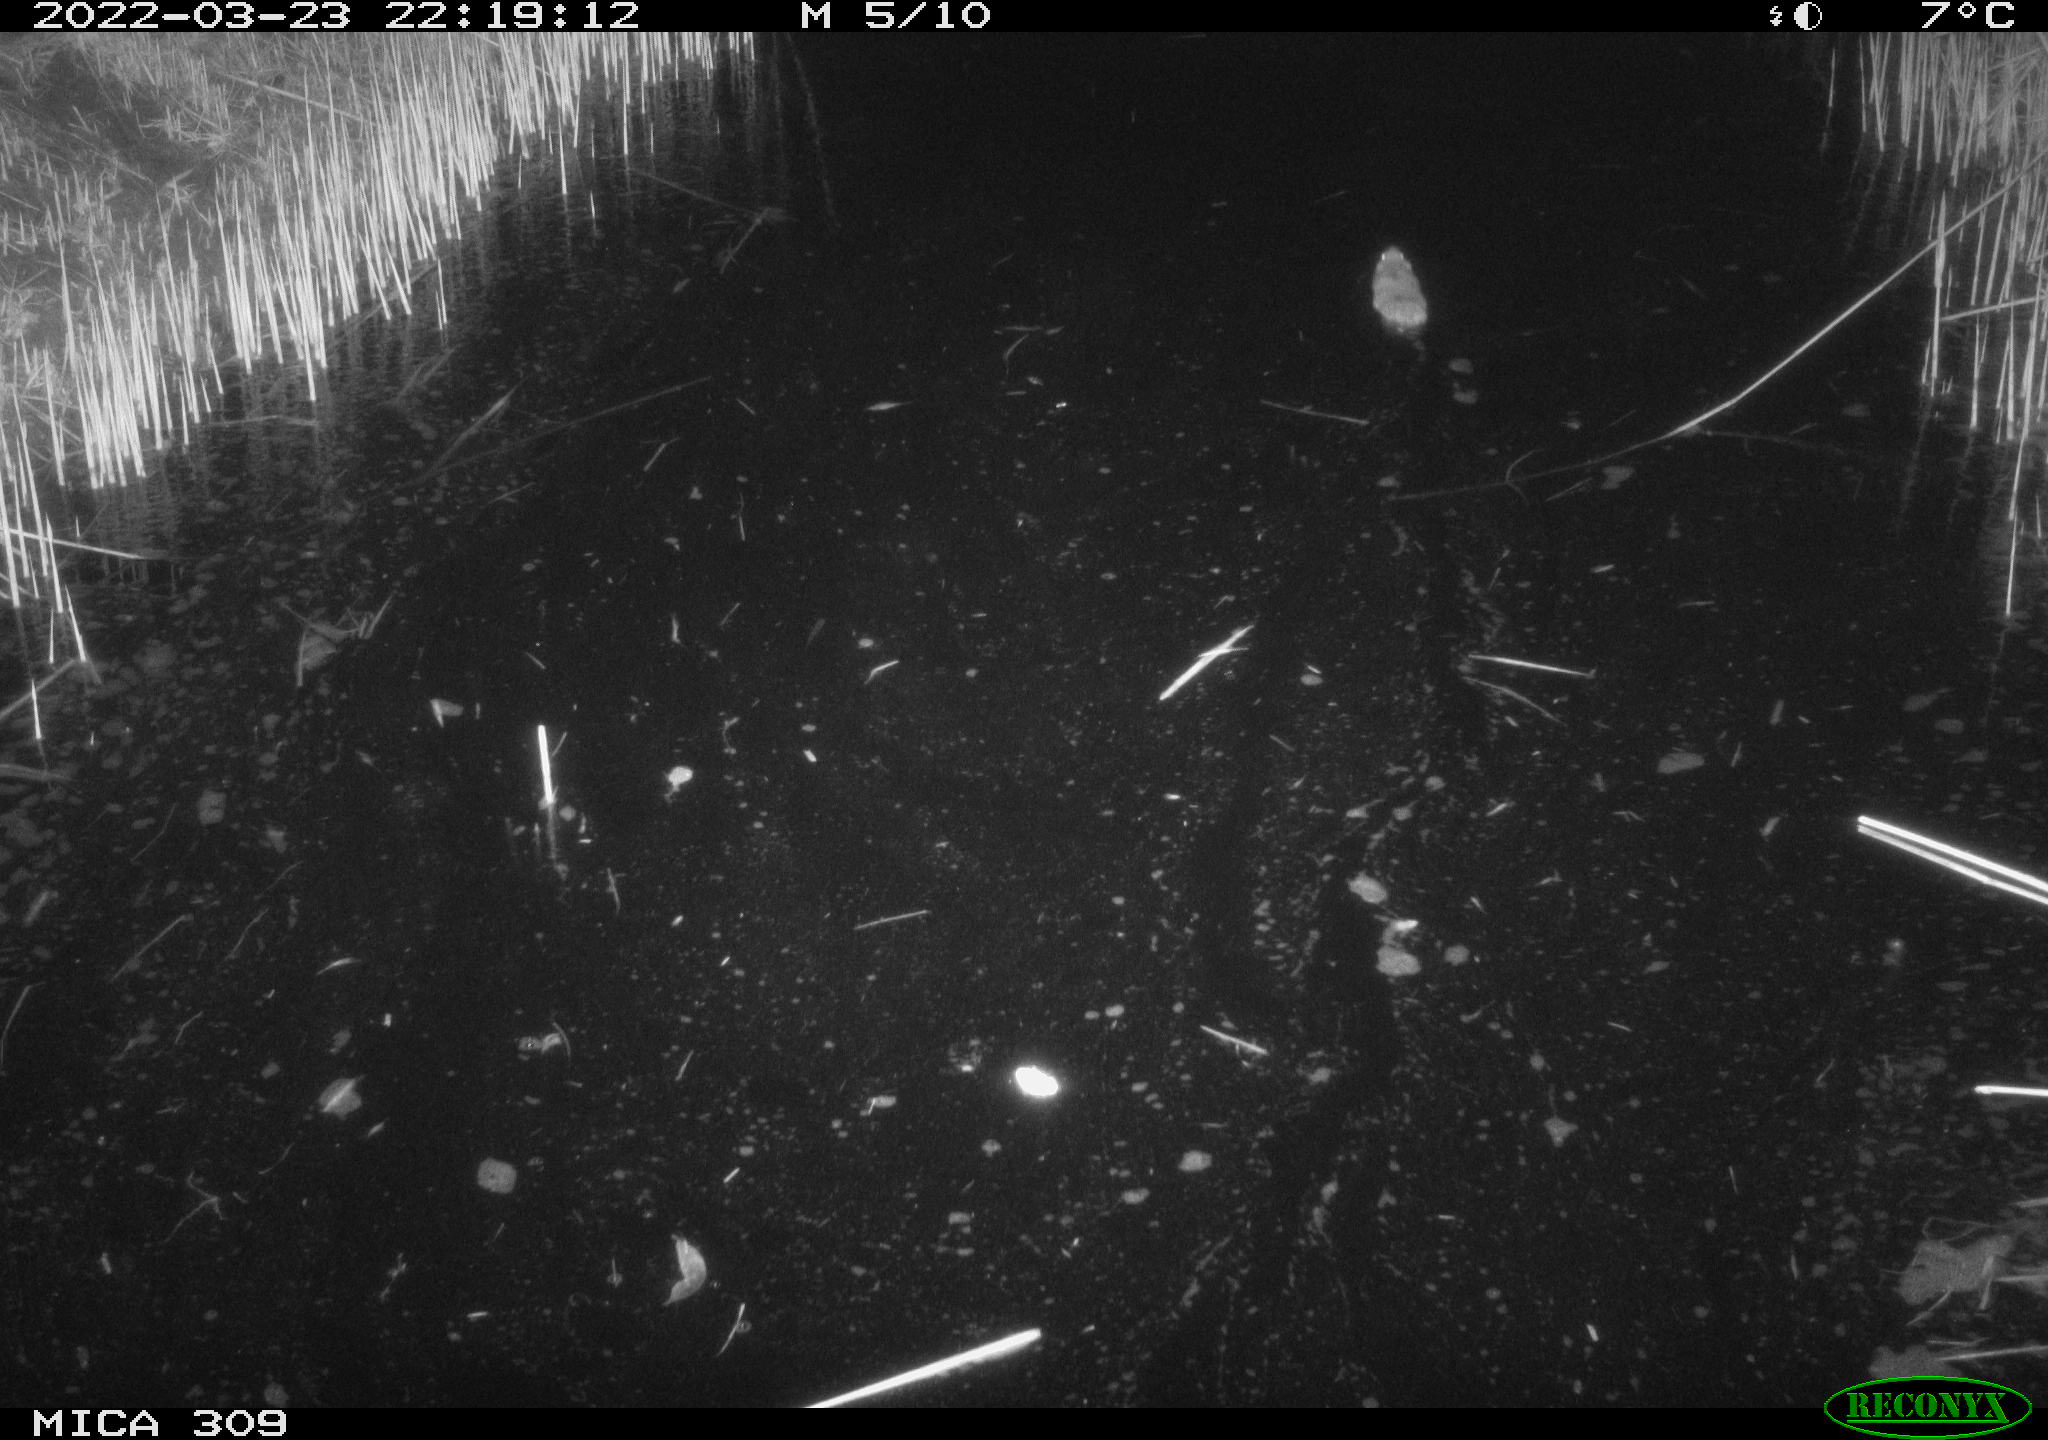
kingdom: Animalia
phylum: Chordata
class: Mammalia
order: Rodentia
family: Muridae
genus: Rattus
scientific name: Rattus norvegicus
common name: Brown rat
